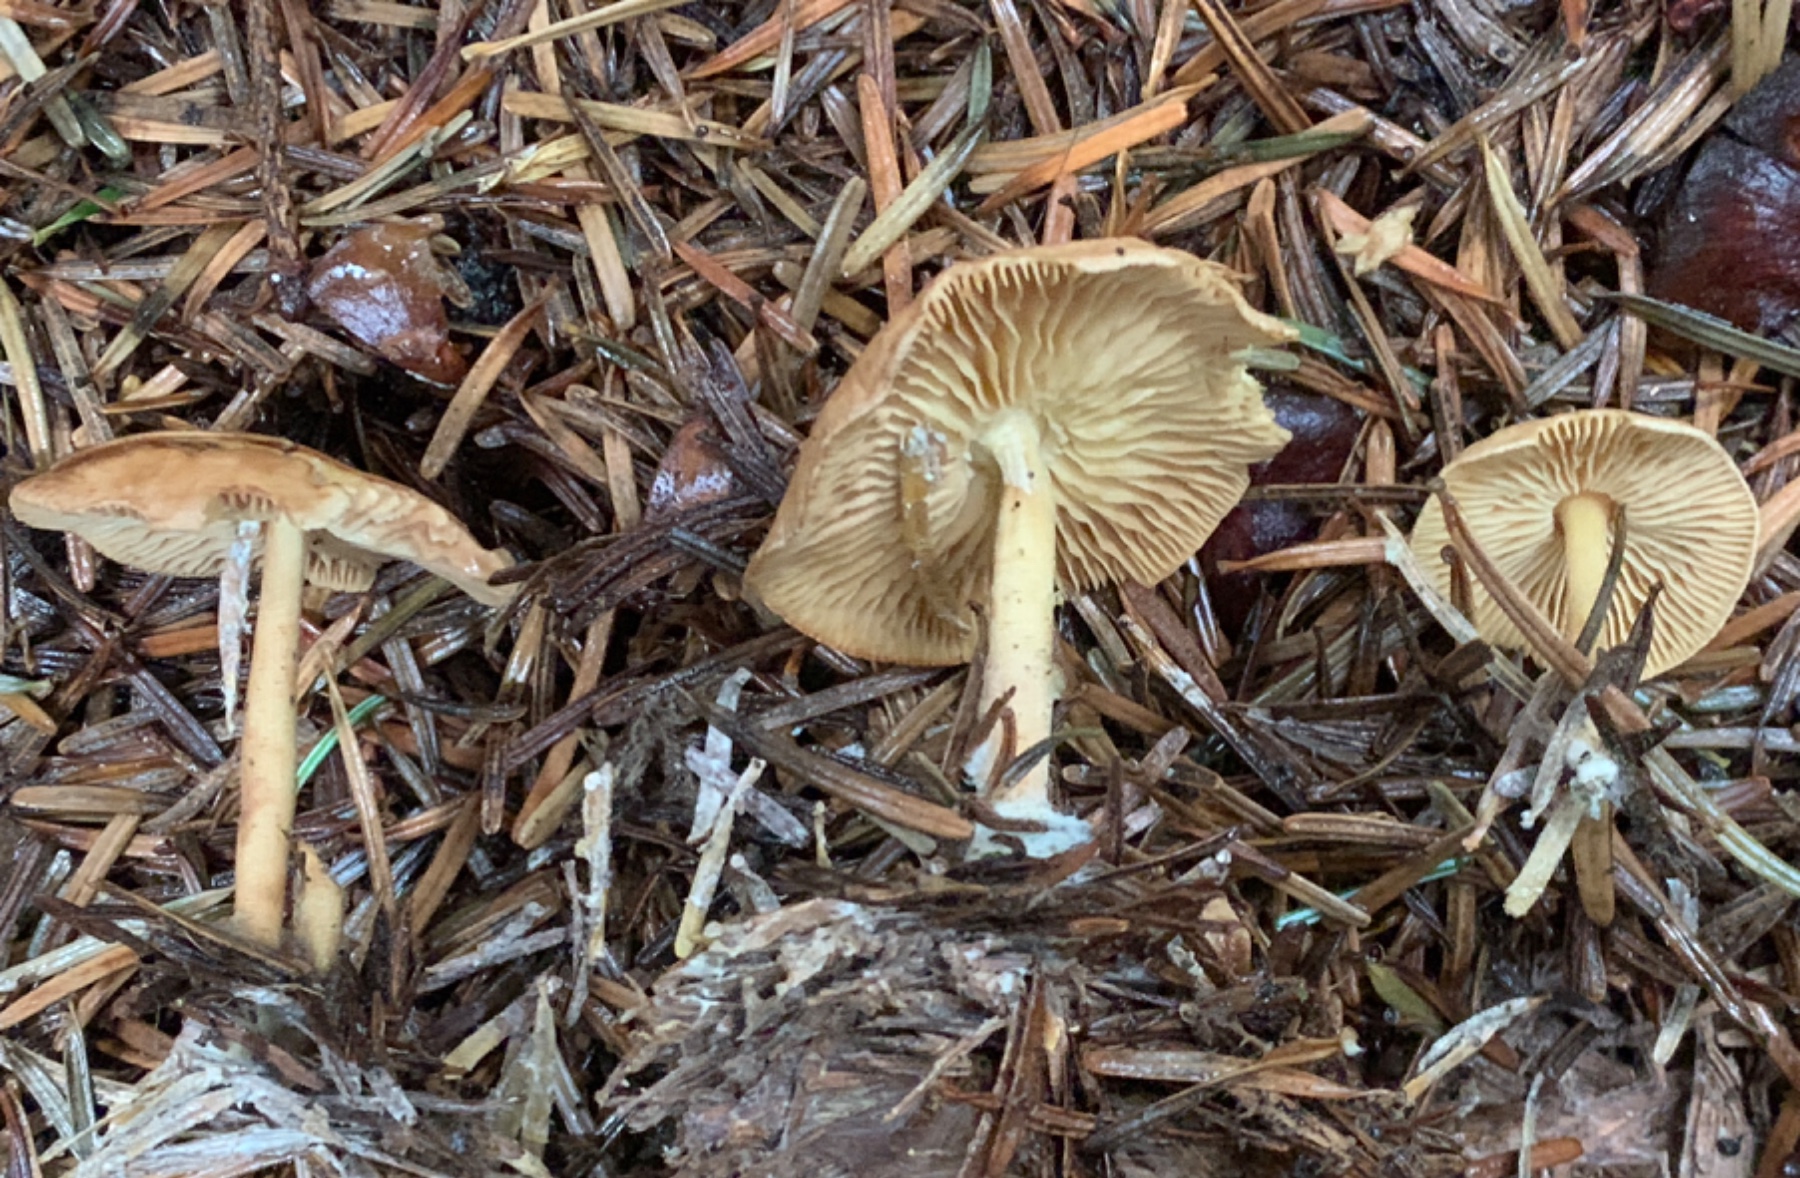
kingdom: Fungi
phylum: Basidiomycota
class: Agaricomycetes
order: Agaricales
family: Omphalotaceae
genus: Collybiopsis
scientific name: Collybiopsis peronata
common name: bestøvlet fladhat
